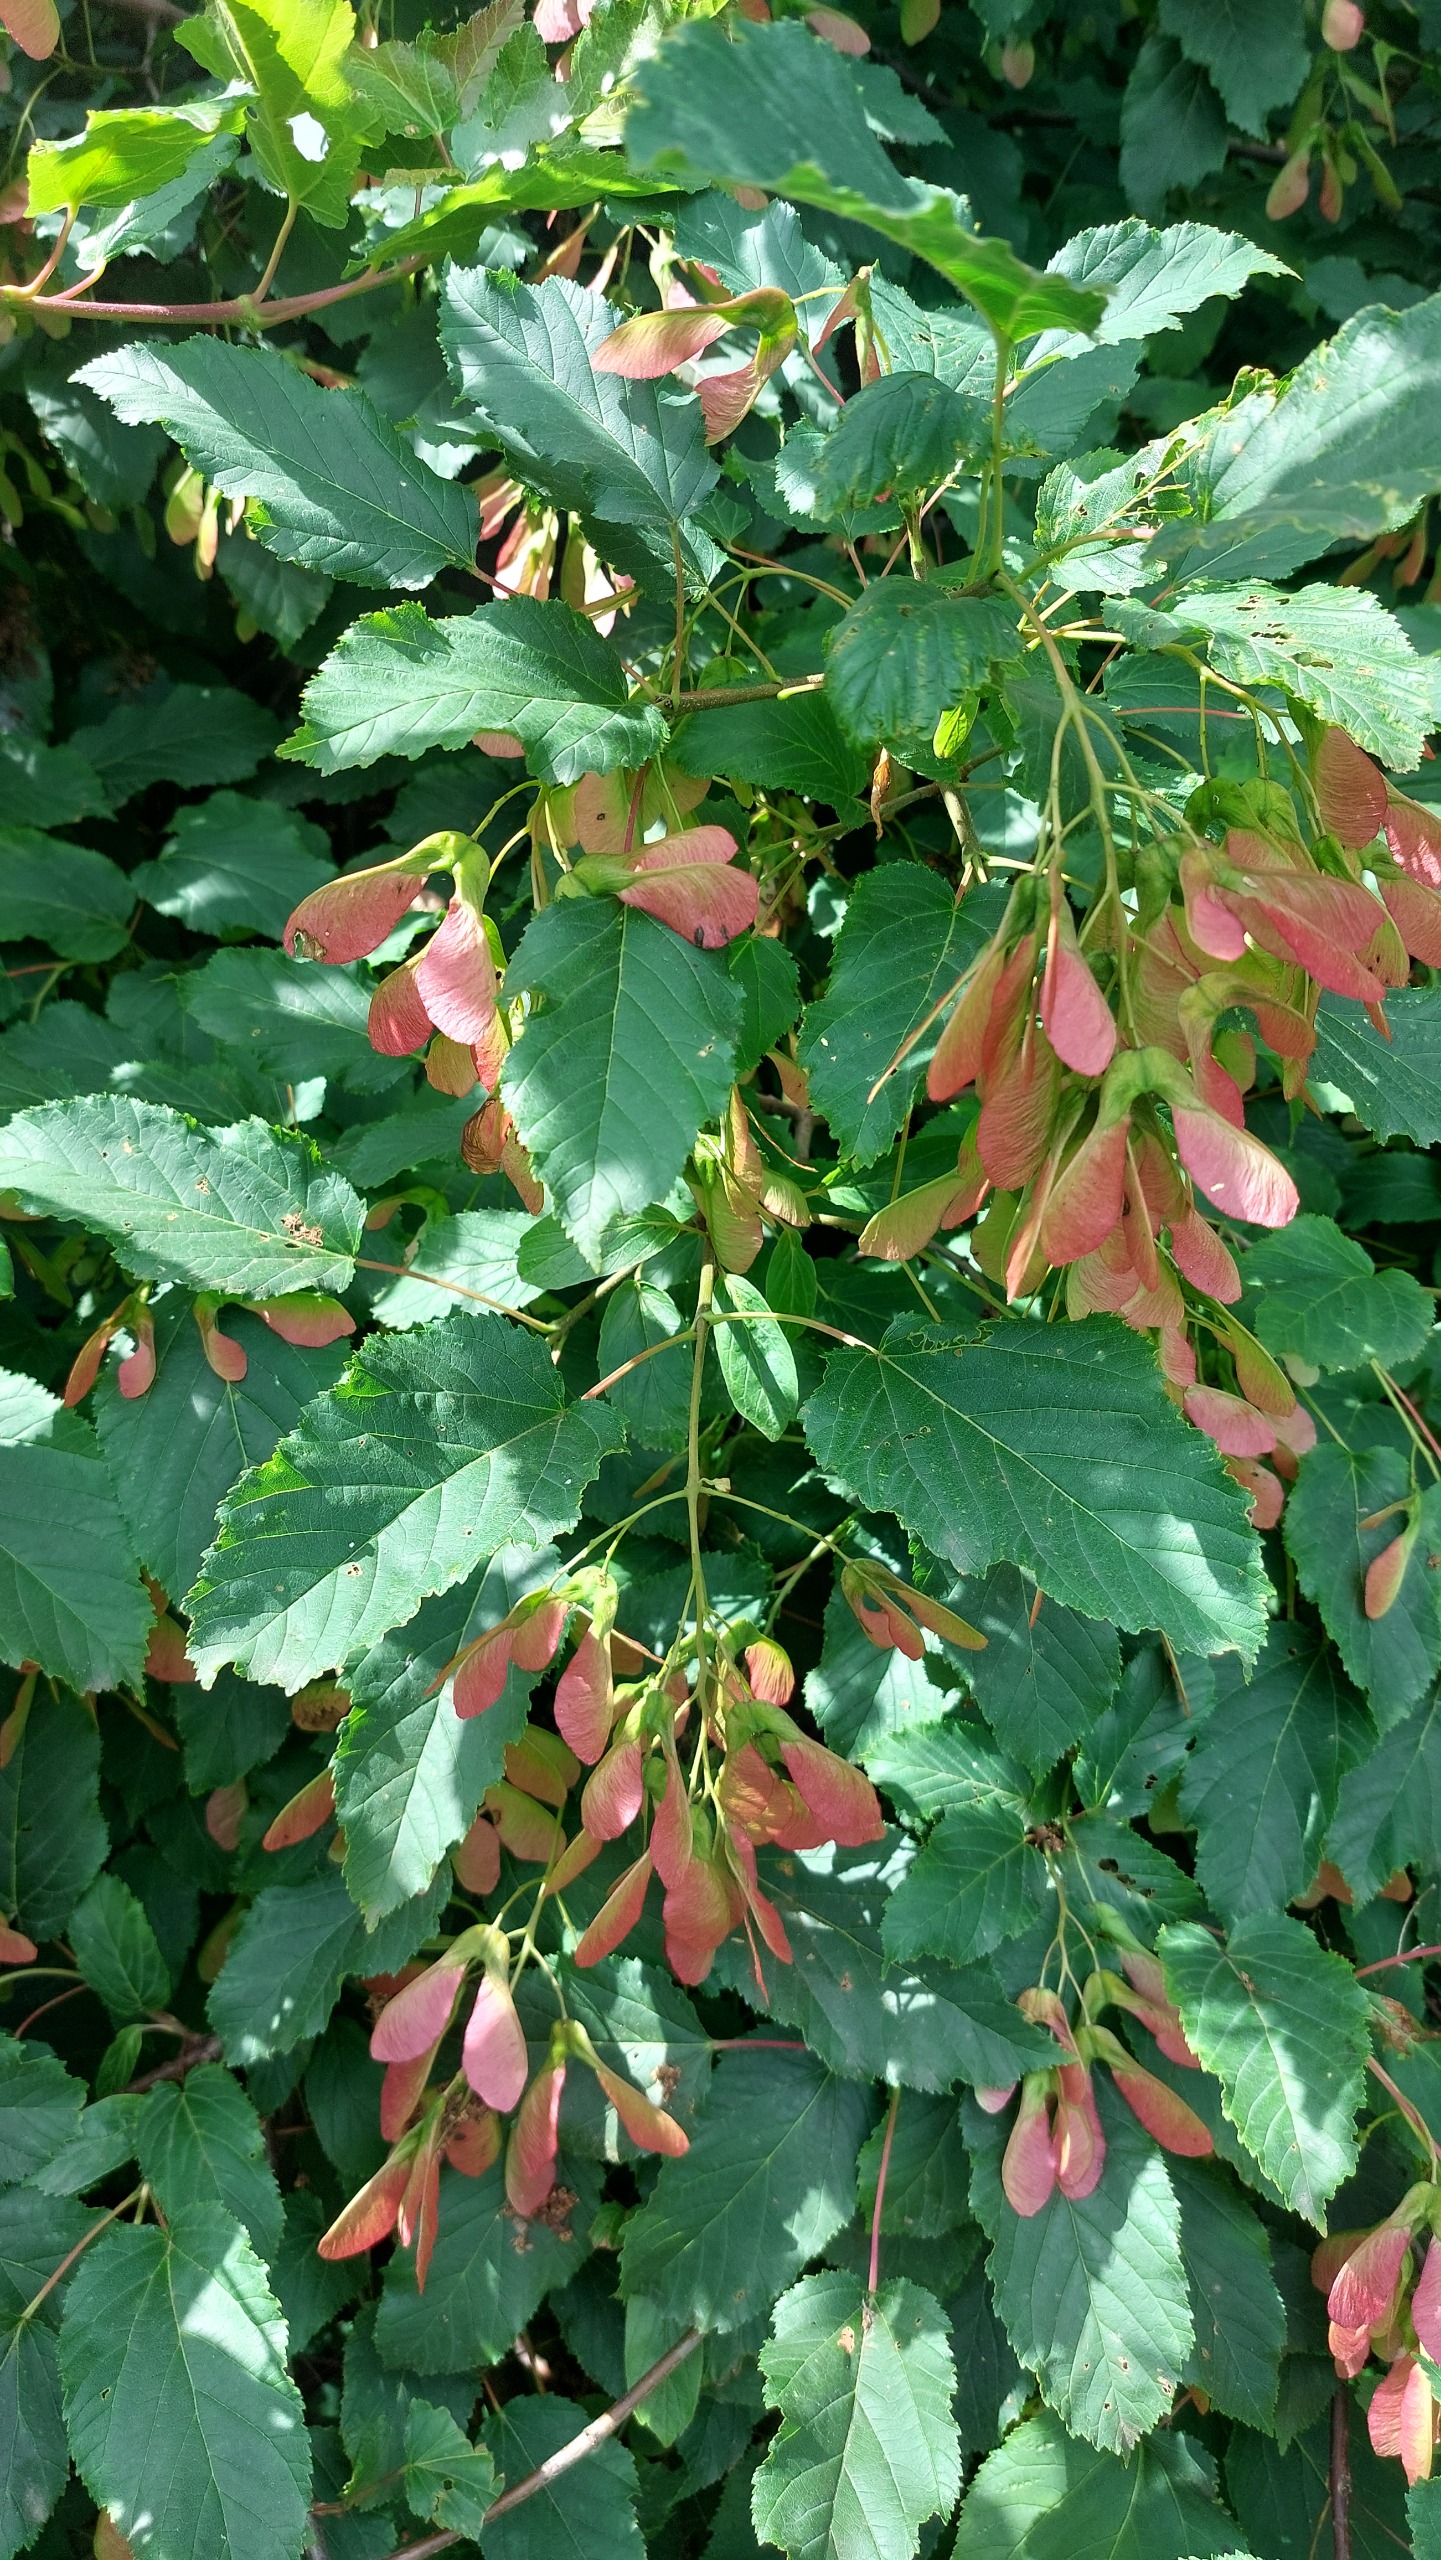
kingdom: Plantae
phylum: Tracheophyta
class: Magnoliopsida
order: Sapindales
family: Sapindaceae
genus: Acer
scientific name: Acer tataricum
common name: Russisk løn
